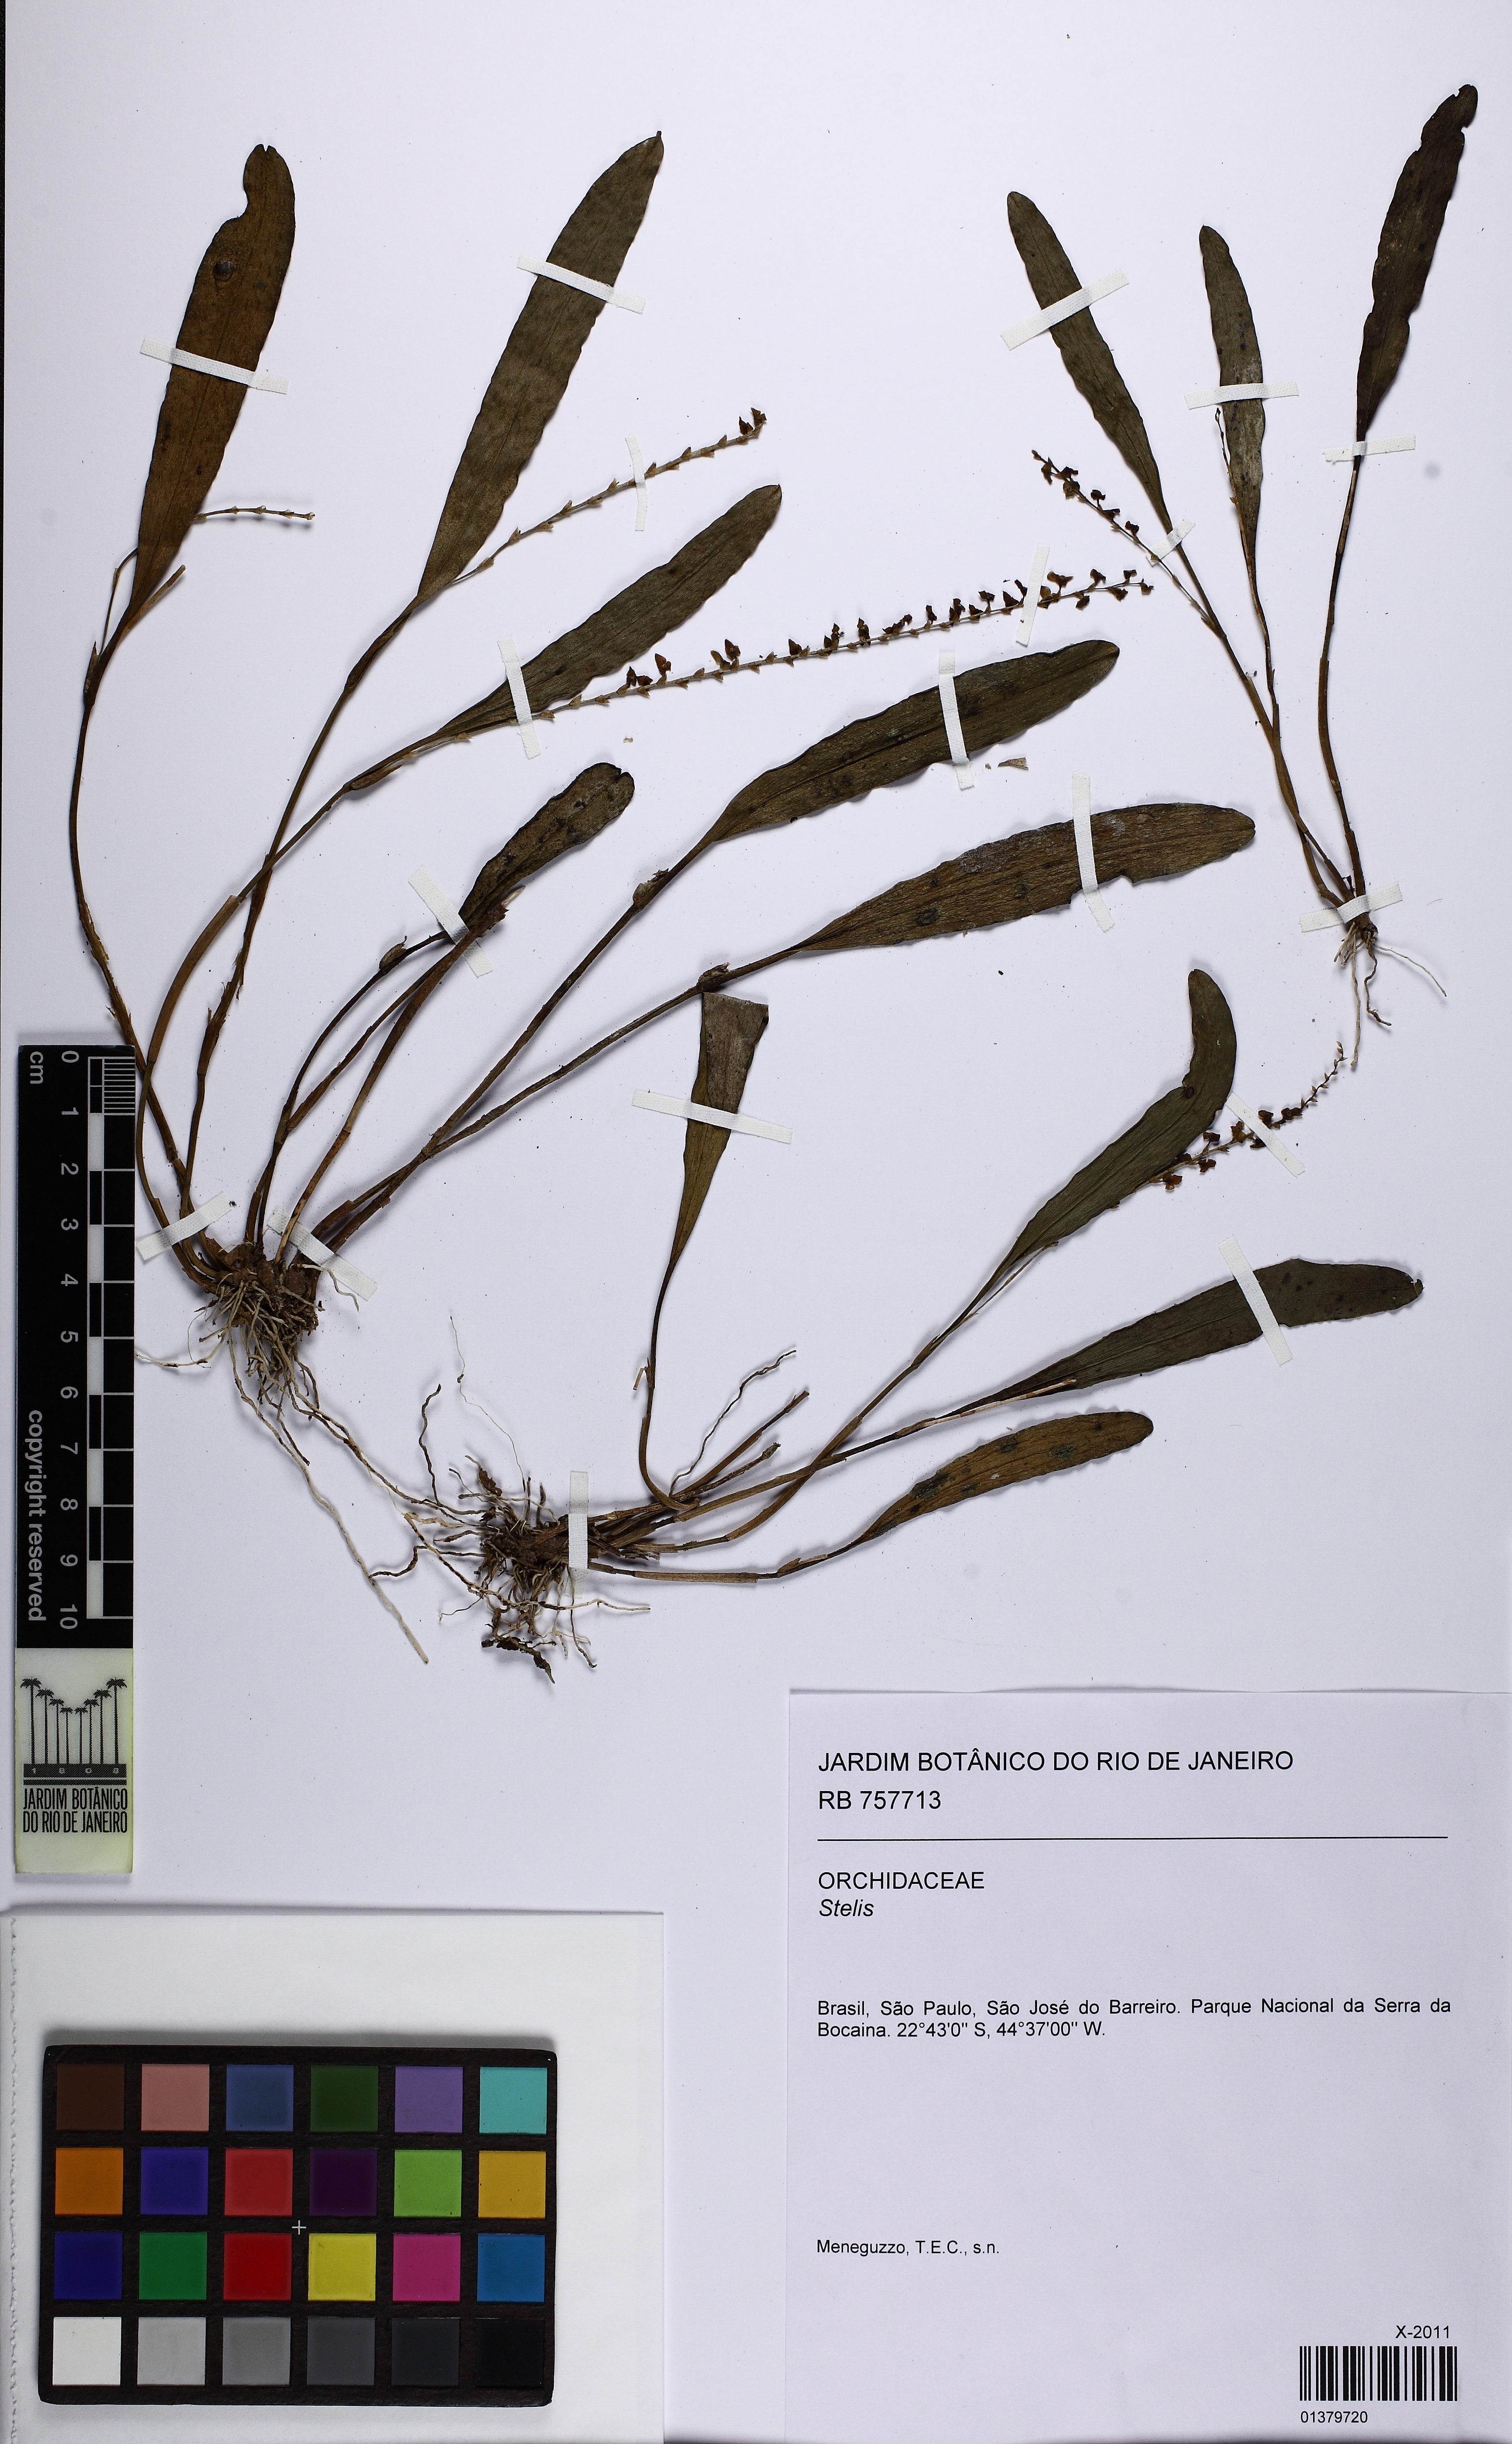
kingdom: Plantae
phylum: Tracheophyta
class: Liliopsida
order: Asparagales
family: Orchidaceae
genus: Stelis
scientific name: Stelis
